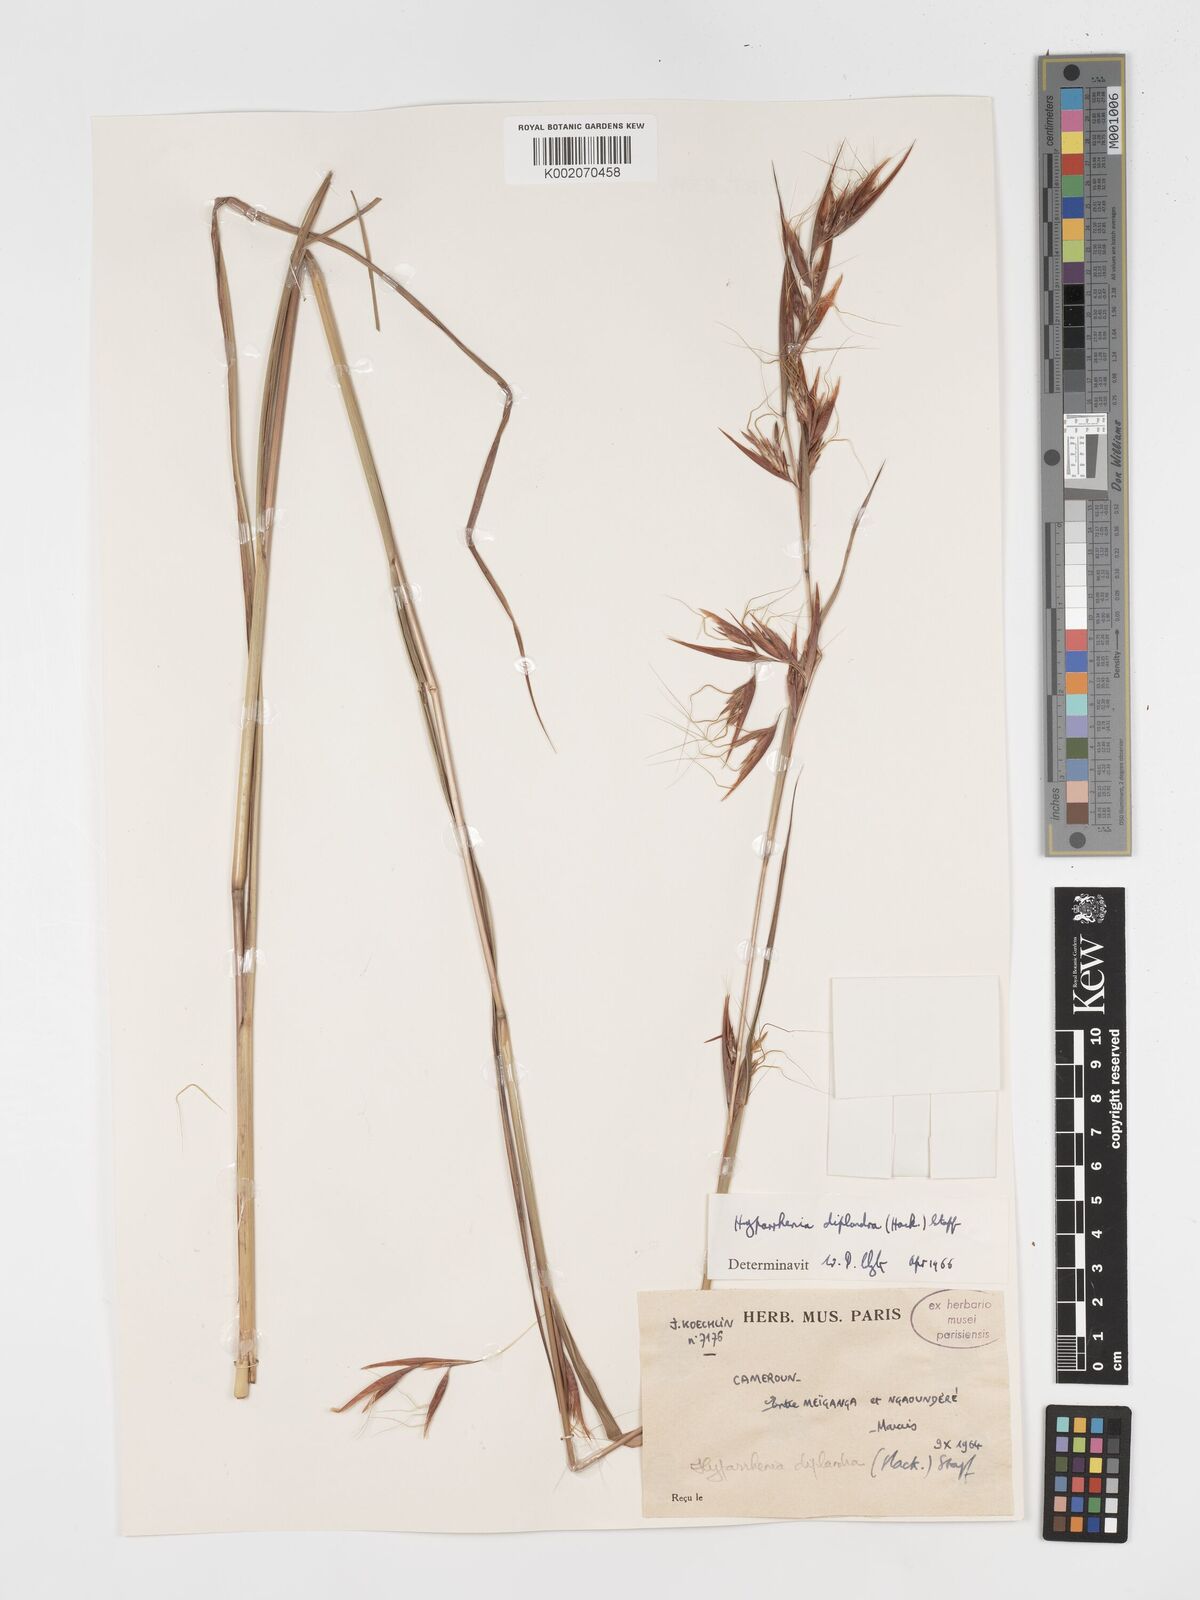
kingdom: Plantae
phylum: Tracheophyta
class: Liliopsida
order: Poales
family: Poaceae
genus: Hyparrhenia
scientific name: Hyparrhenia diplandra
